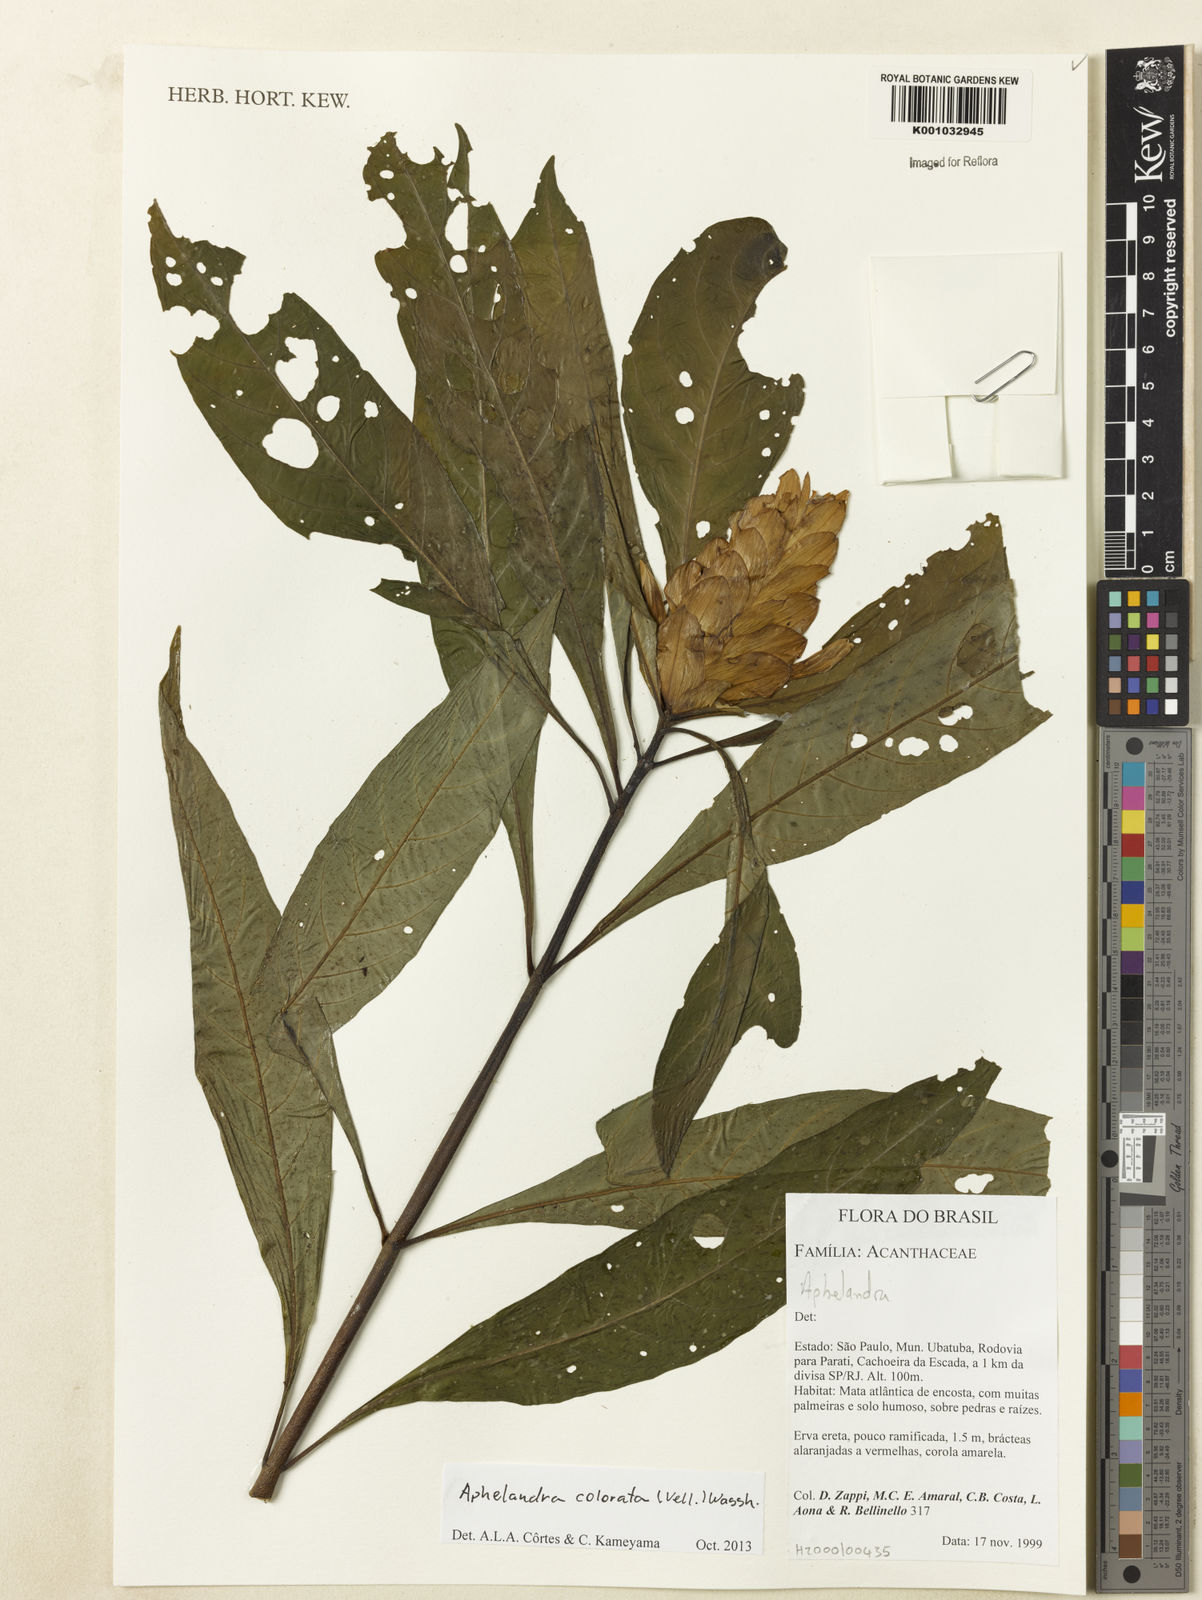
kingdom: Plantae
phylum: Tracheophyta
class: Magnoliopsida
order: Lamiales
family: Acanthaceae
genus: Aphelandra
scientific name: Aphelandra colorata
